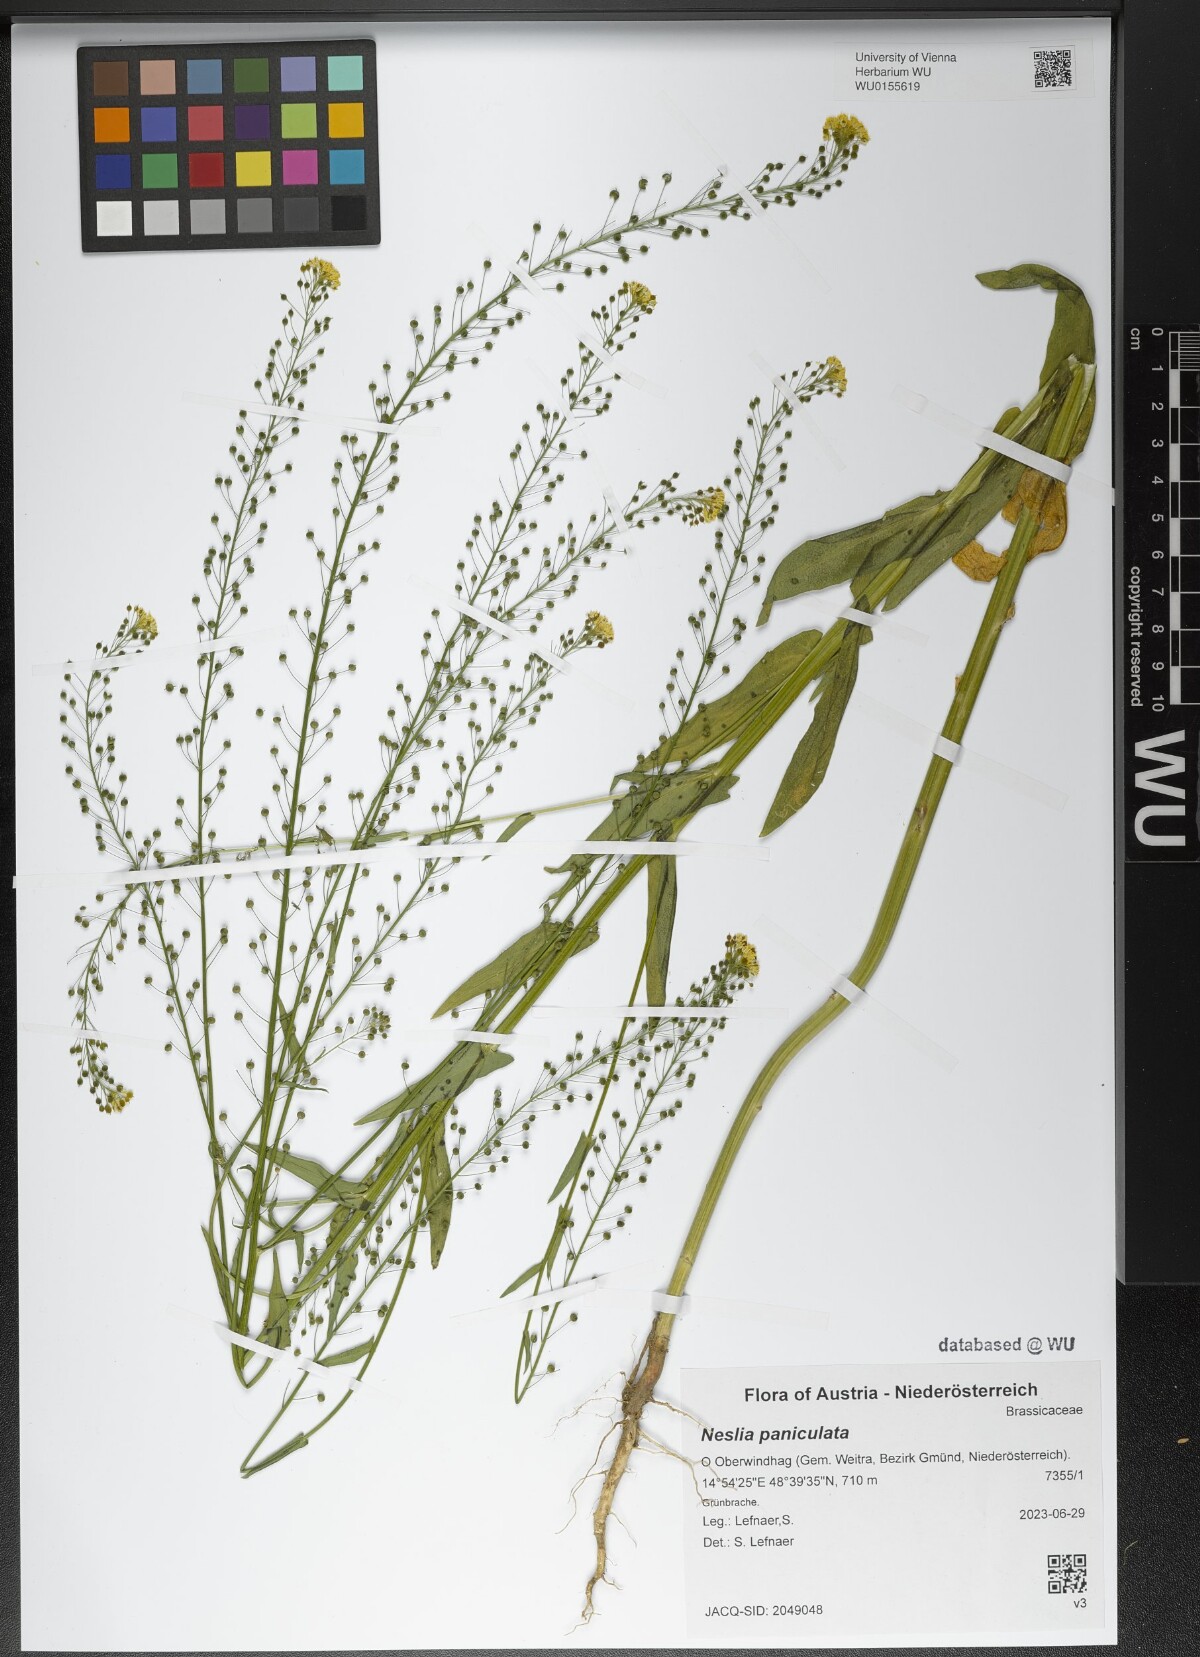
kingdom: Plantae
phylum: Tracheophyta
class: Magnoliopsida
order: Brassicales
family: Brassicaceae
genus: Neslia
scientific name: Neslia paniculata
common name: Ball mustard
